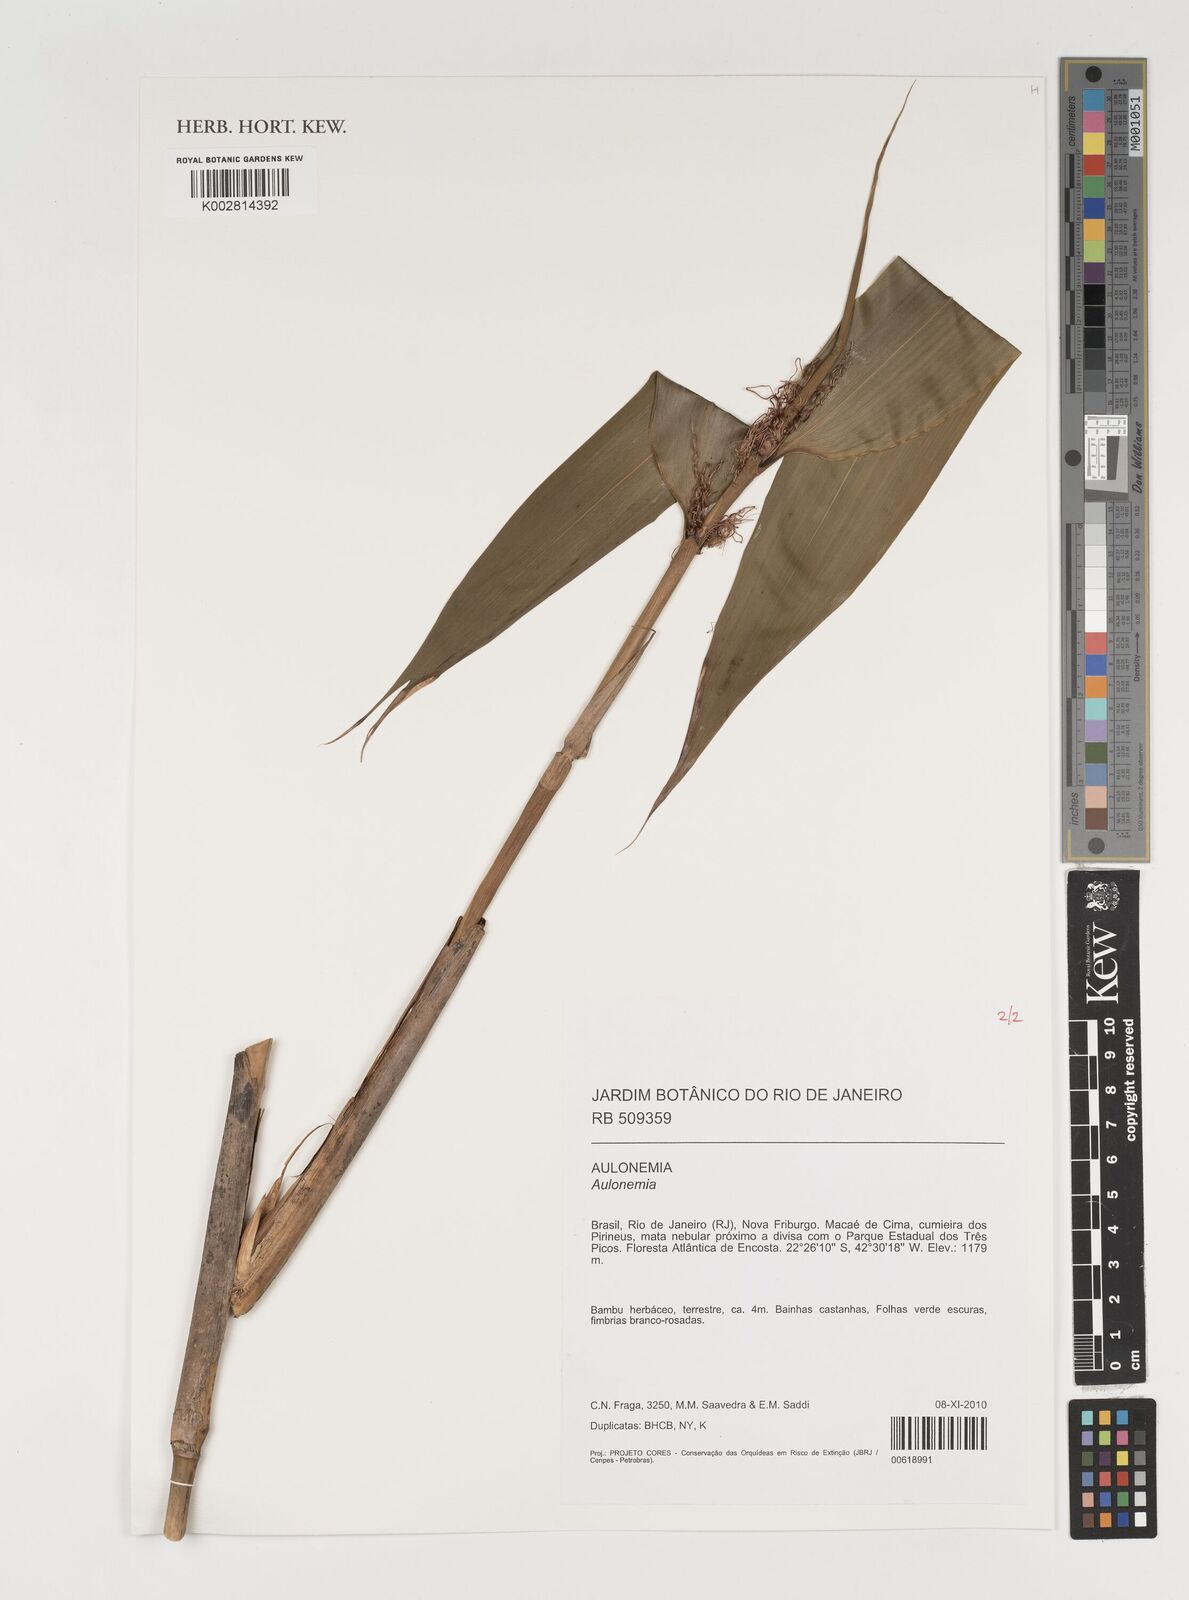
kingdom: Plantae
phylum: Tracheophyta
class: Liliopsida
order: Poales
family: Poaceae
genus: Aulonemia
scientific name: Aulonemia
